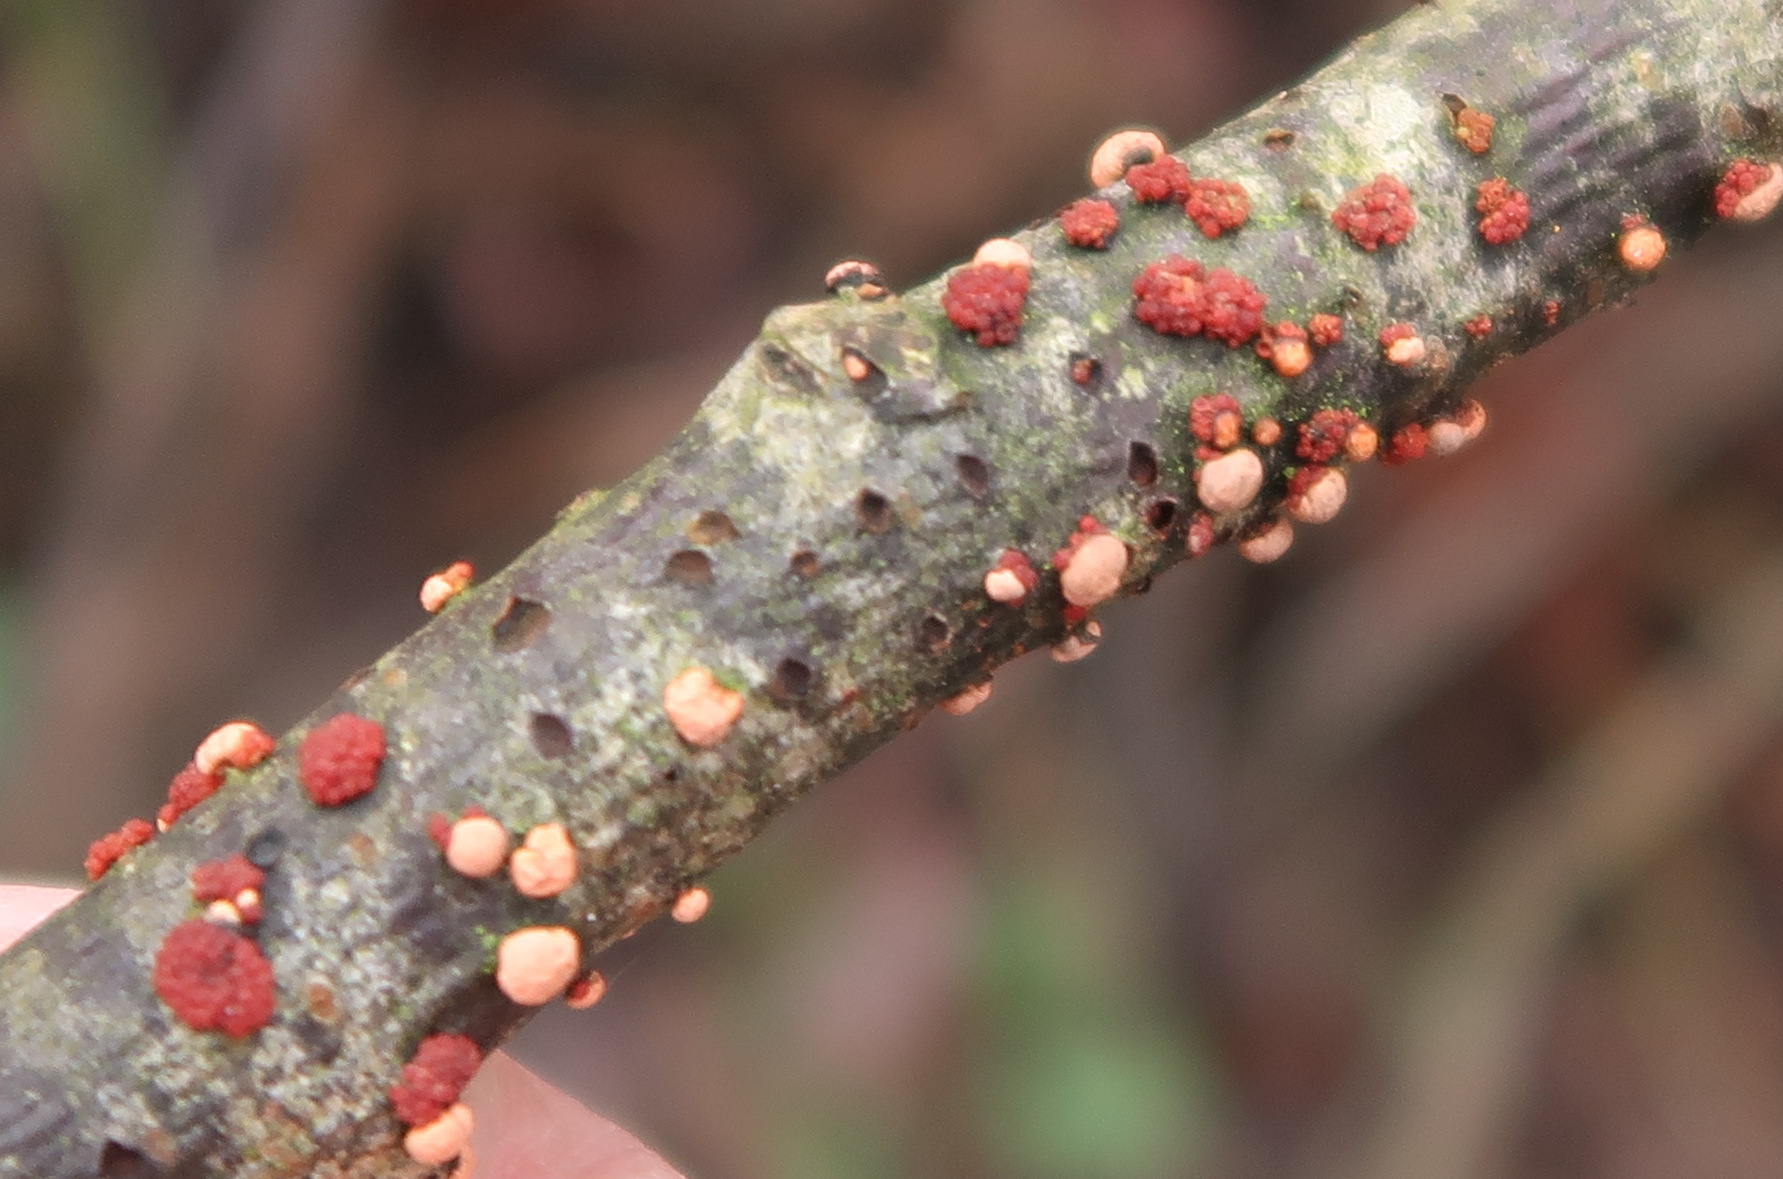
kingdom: Fungi
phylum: Ascomycota
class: Sordariomycetes
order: Hypocreales
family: Nectriaceae
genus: Nectria
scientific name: Nectria cinnabarina
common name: almindelig cinnobersvamp
